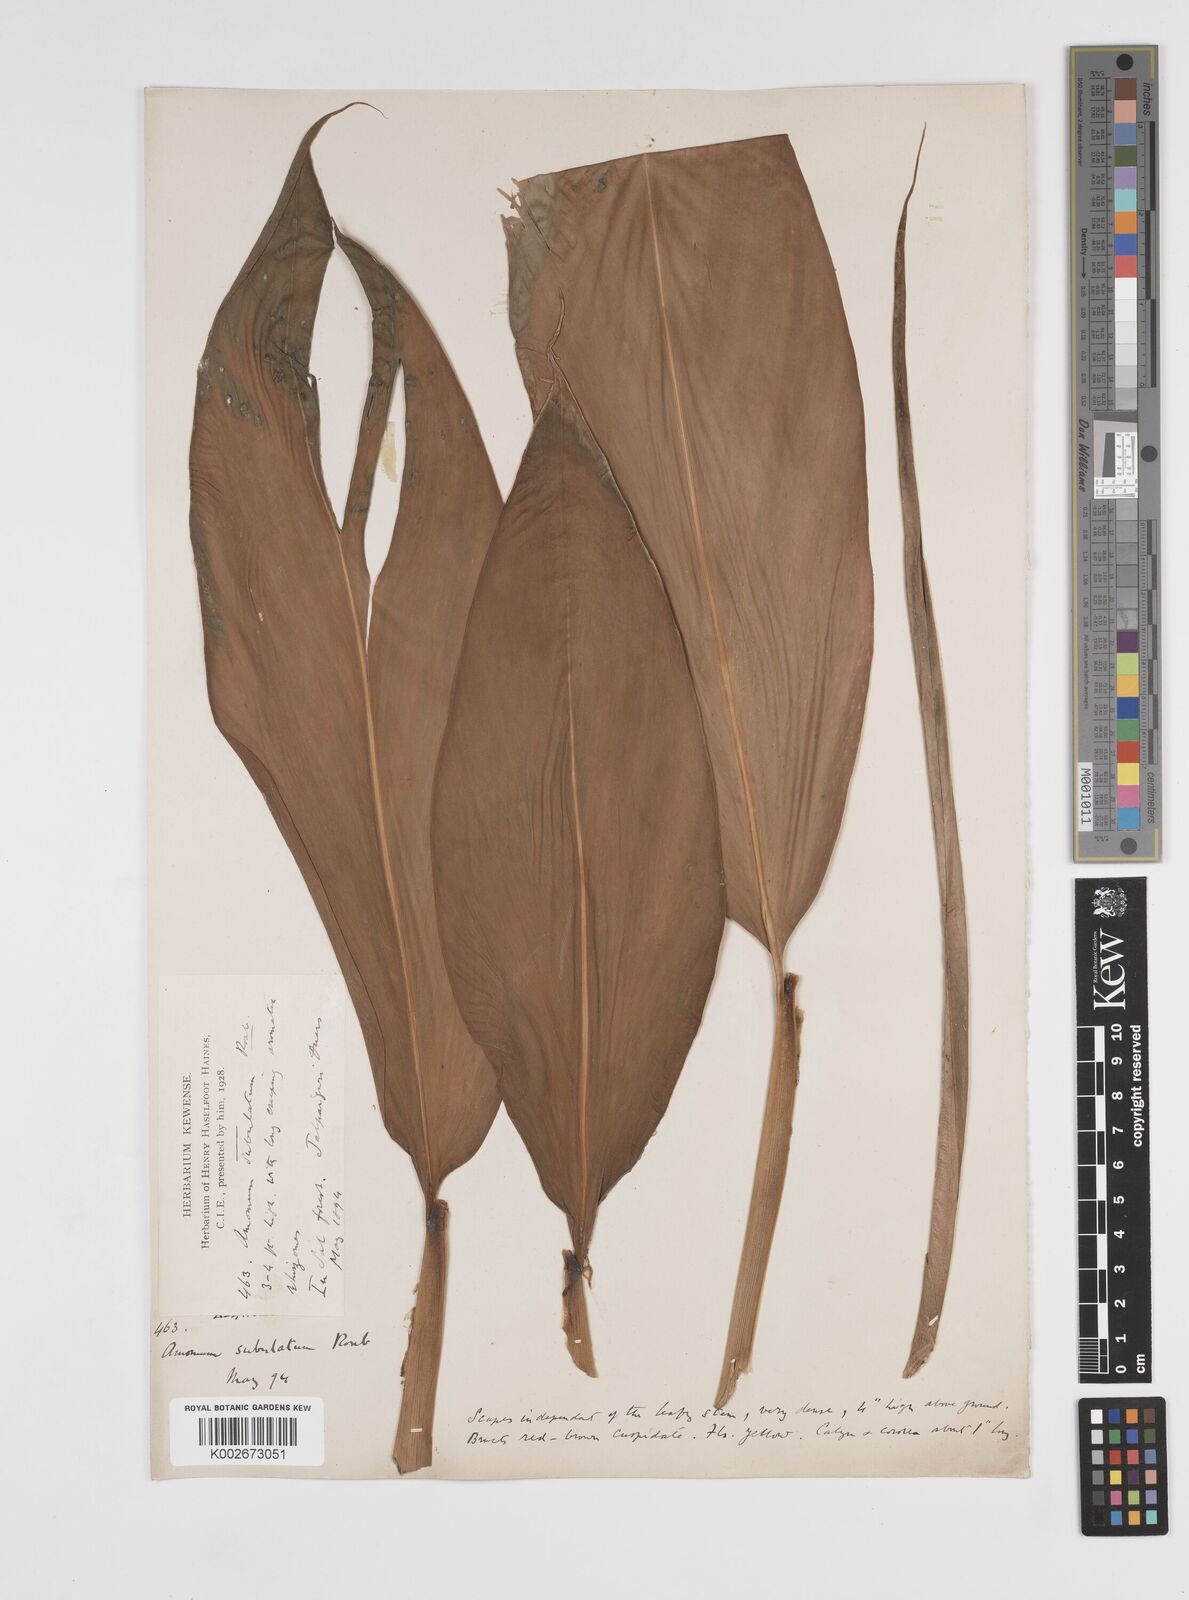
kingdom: Plantae
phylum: Tracheophyta
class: Liliopsida
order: Zingiberales
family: Zingiberaceae
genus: Amomum
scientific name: Amomum subulatum
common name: Black cardamom
